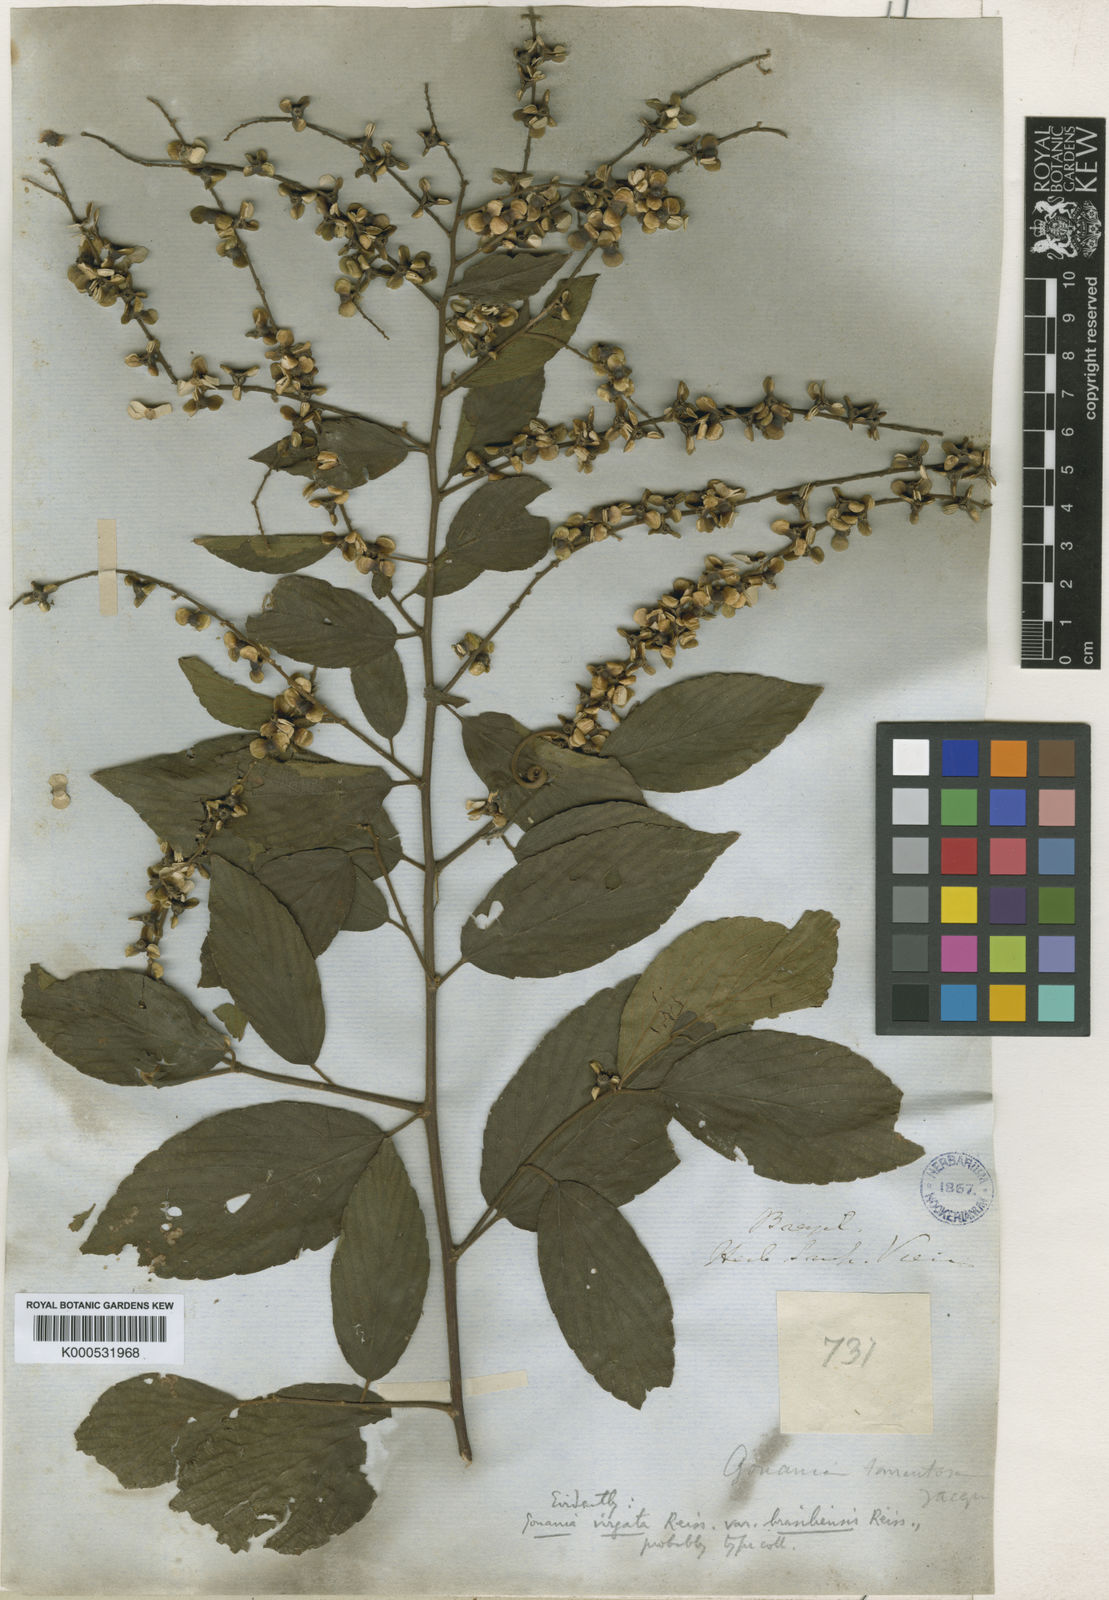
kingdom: Plantae
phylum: Tracheophyta
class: Magnoliopsida
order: Rosales
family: Rhamnaceae
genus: Gouania
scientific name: Gouania lupuloides
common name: Chewstick
